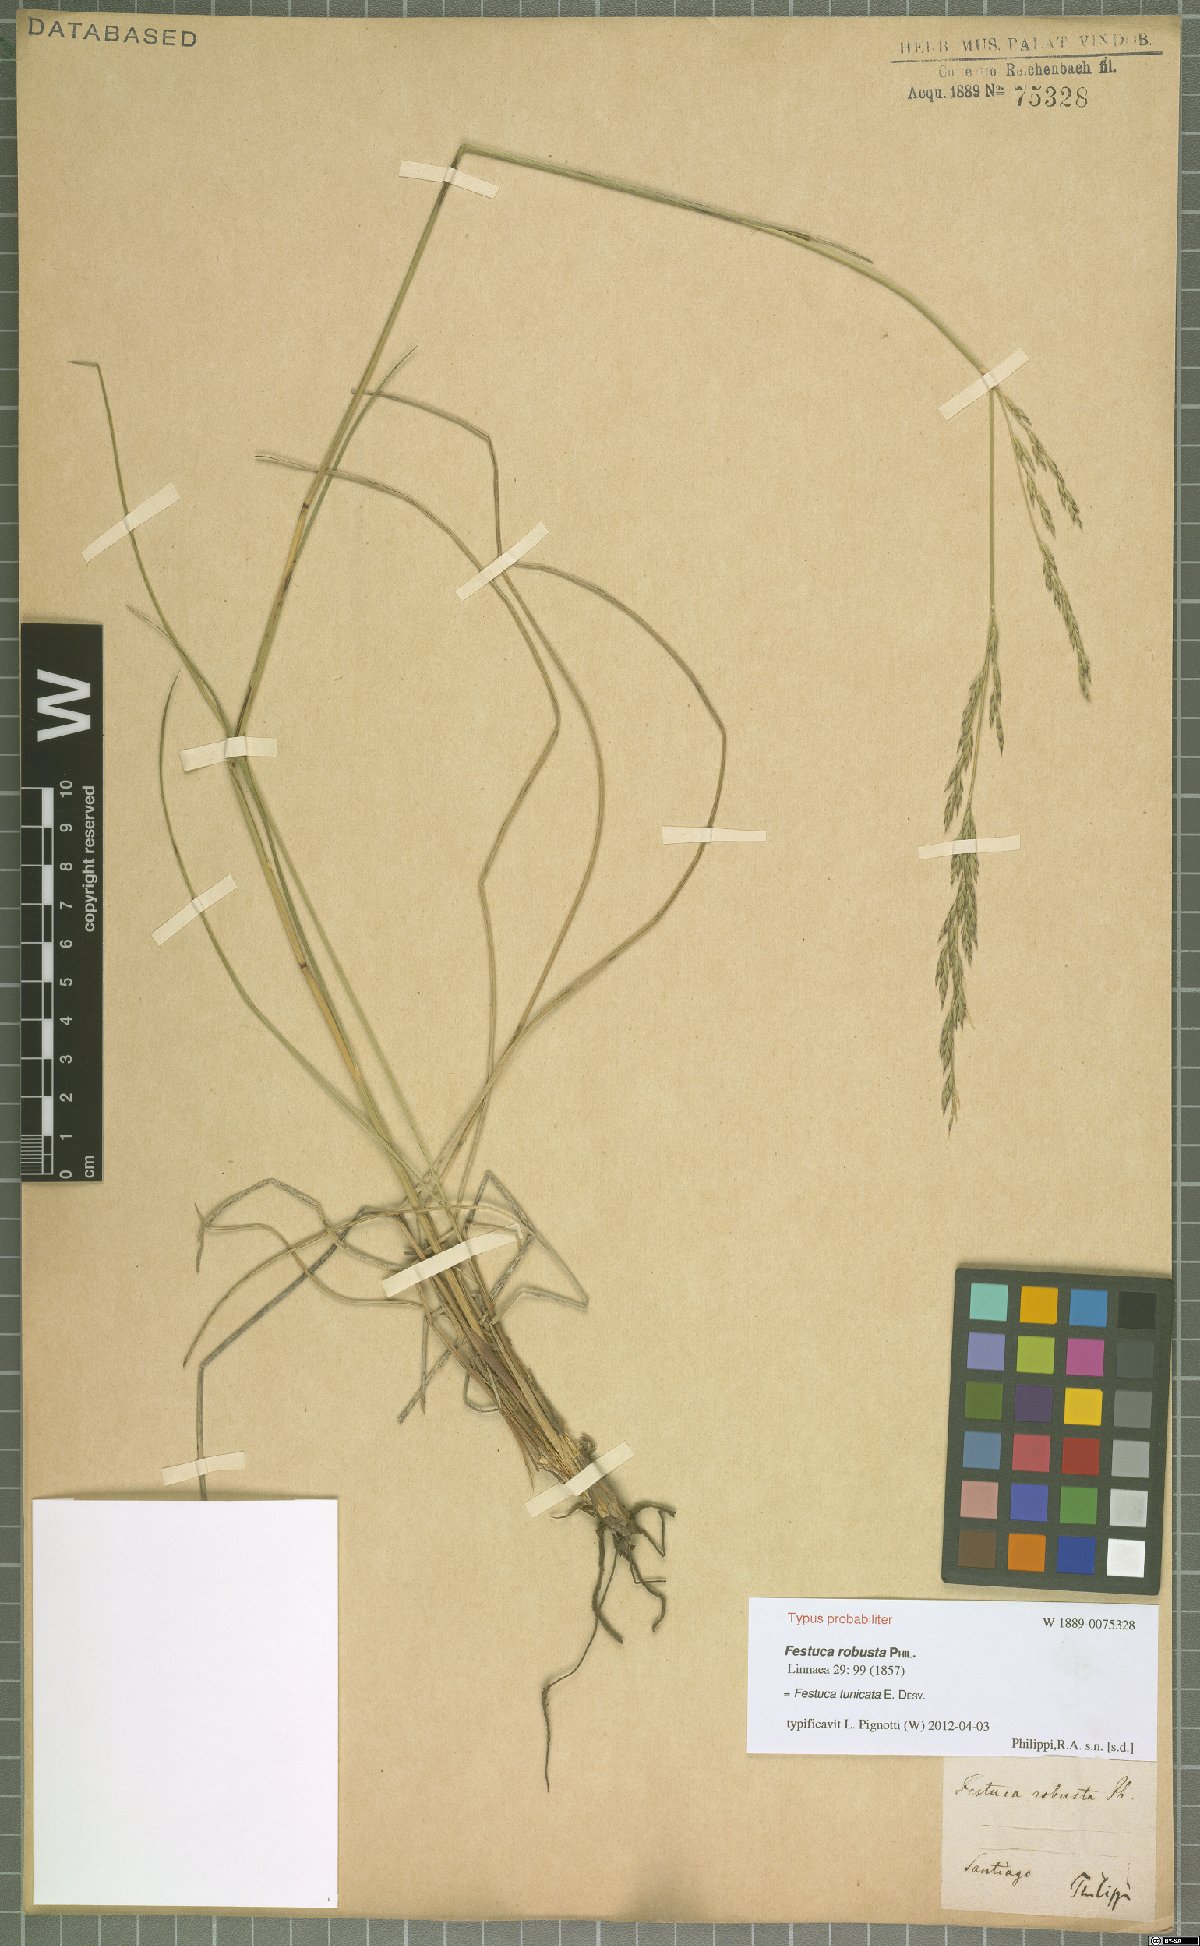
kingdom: Plantae
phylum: Tracheophyta
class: Liliopsida
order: Poales
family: Poaceae
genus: Festuca
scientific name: Festuca acanthophylla
